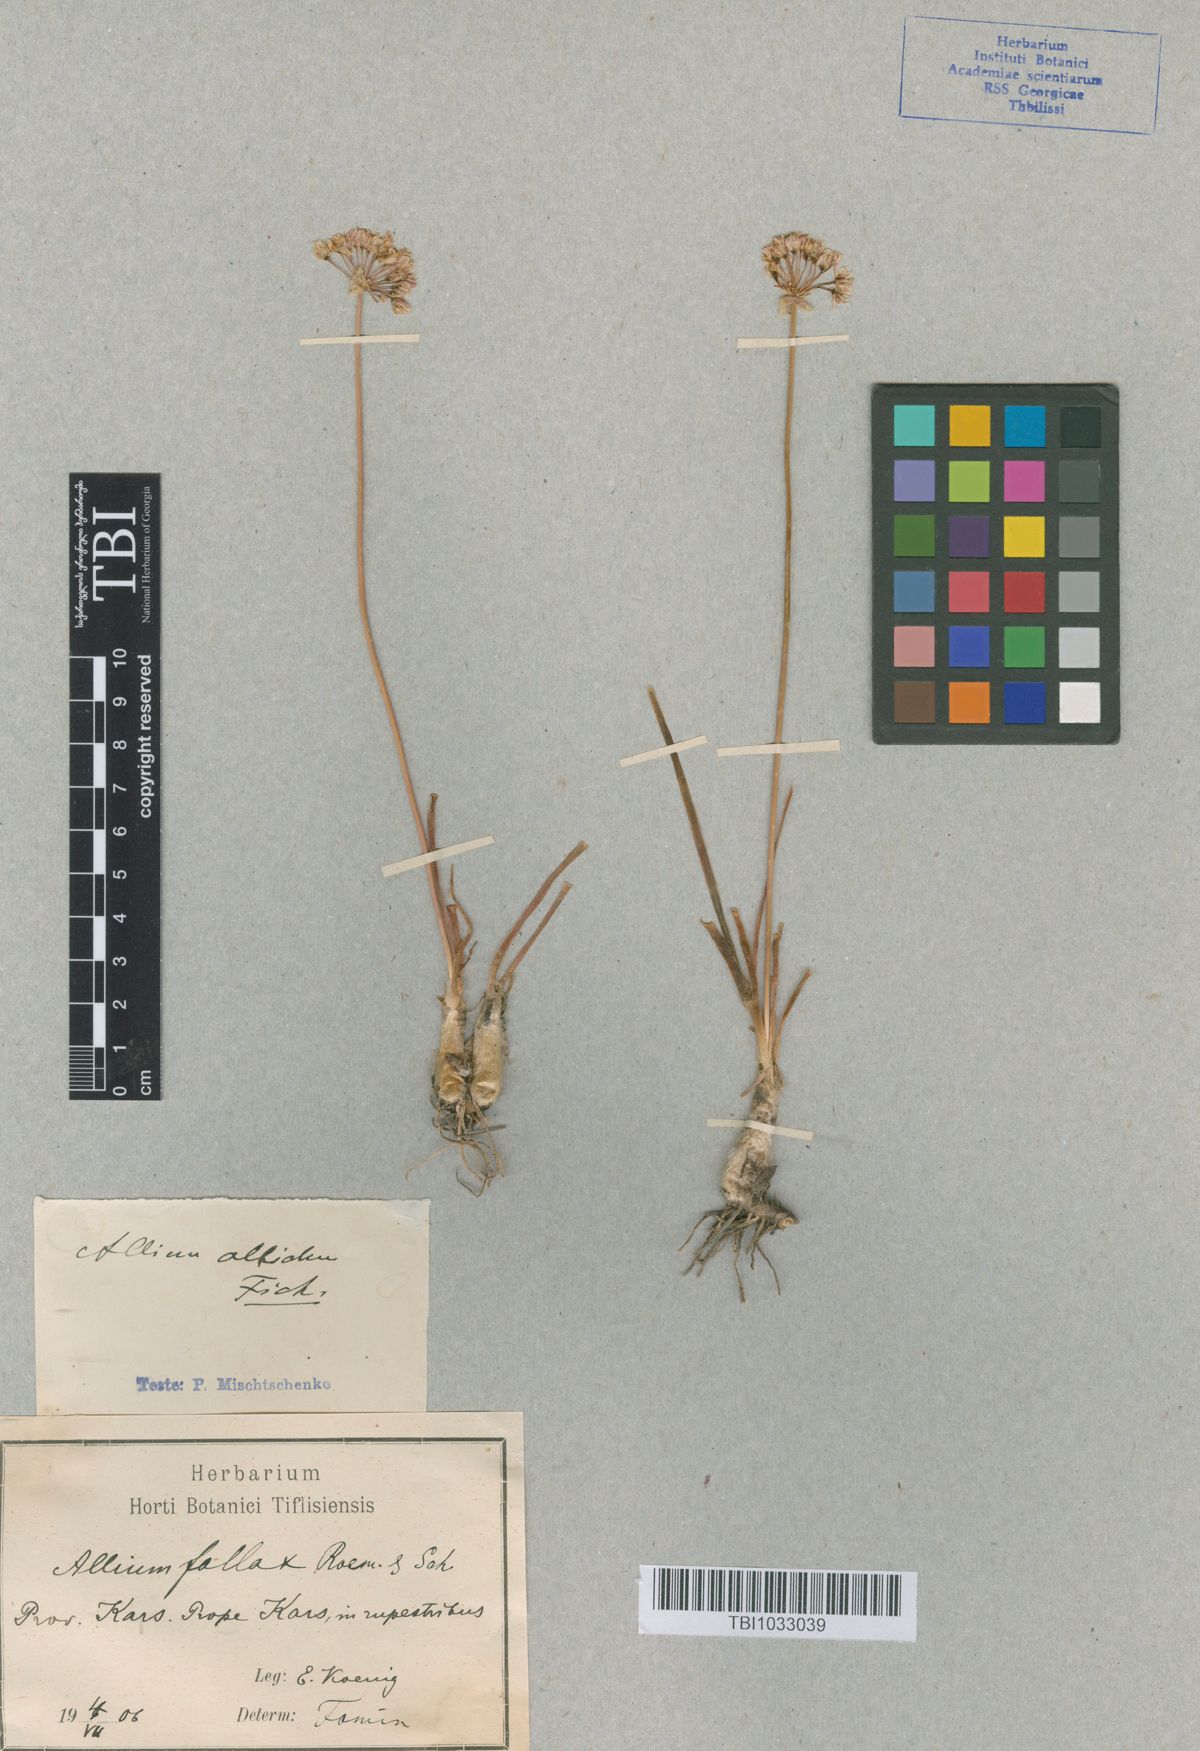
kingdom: Plantae
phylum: Tracheophyta
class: Liliopsida
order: Asparagales
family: Amaryllidaceae
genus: Allium
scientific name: Allium denudatum
